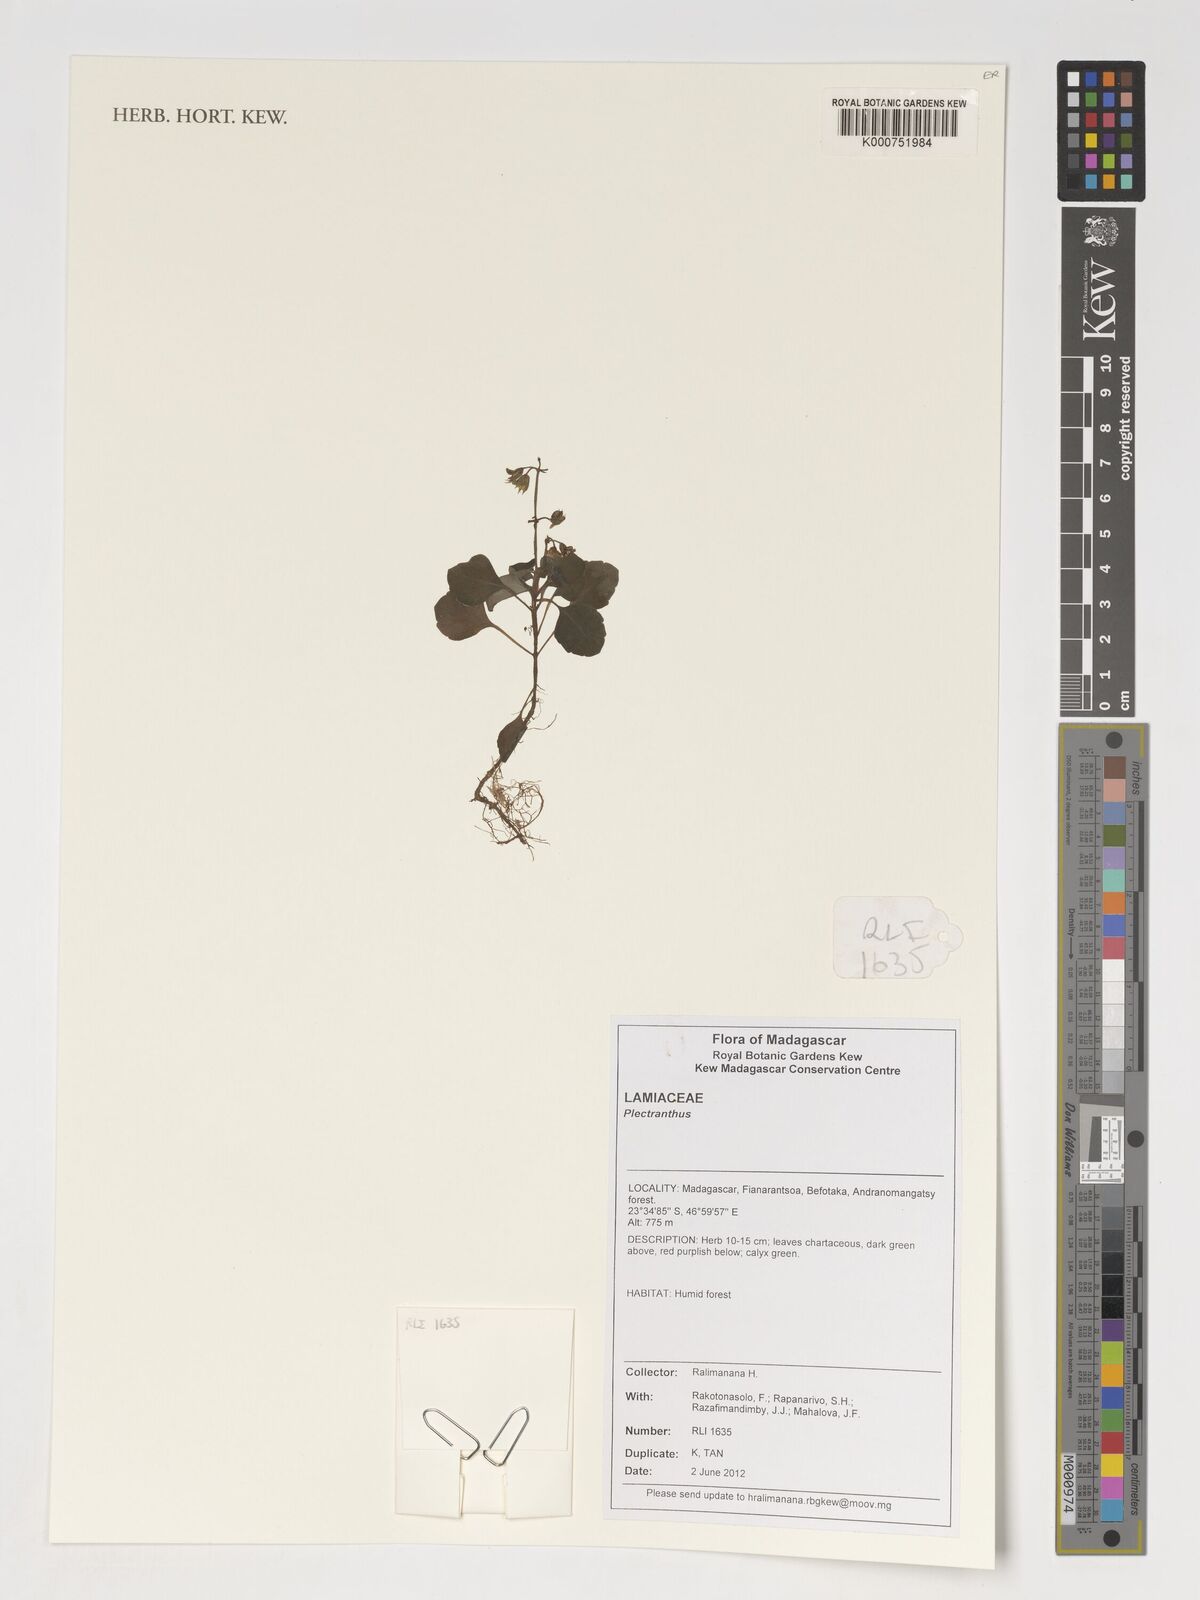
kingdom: Plantae
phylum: Tracheophyta
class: Magnoliopsida
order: Lamiales
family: Lamiaceae
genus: Plectranthus
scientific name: Plectranthus
